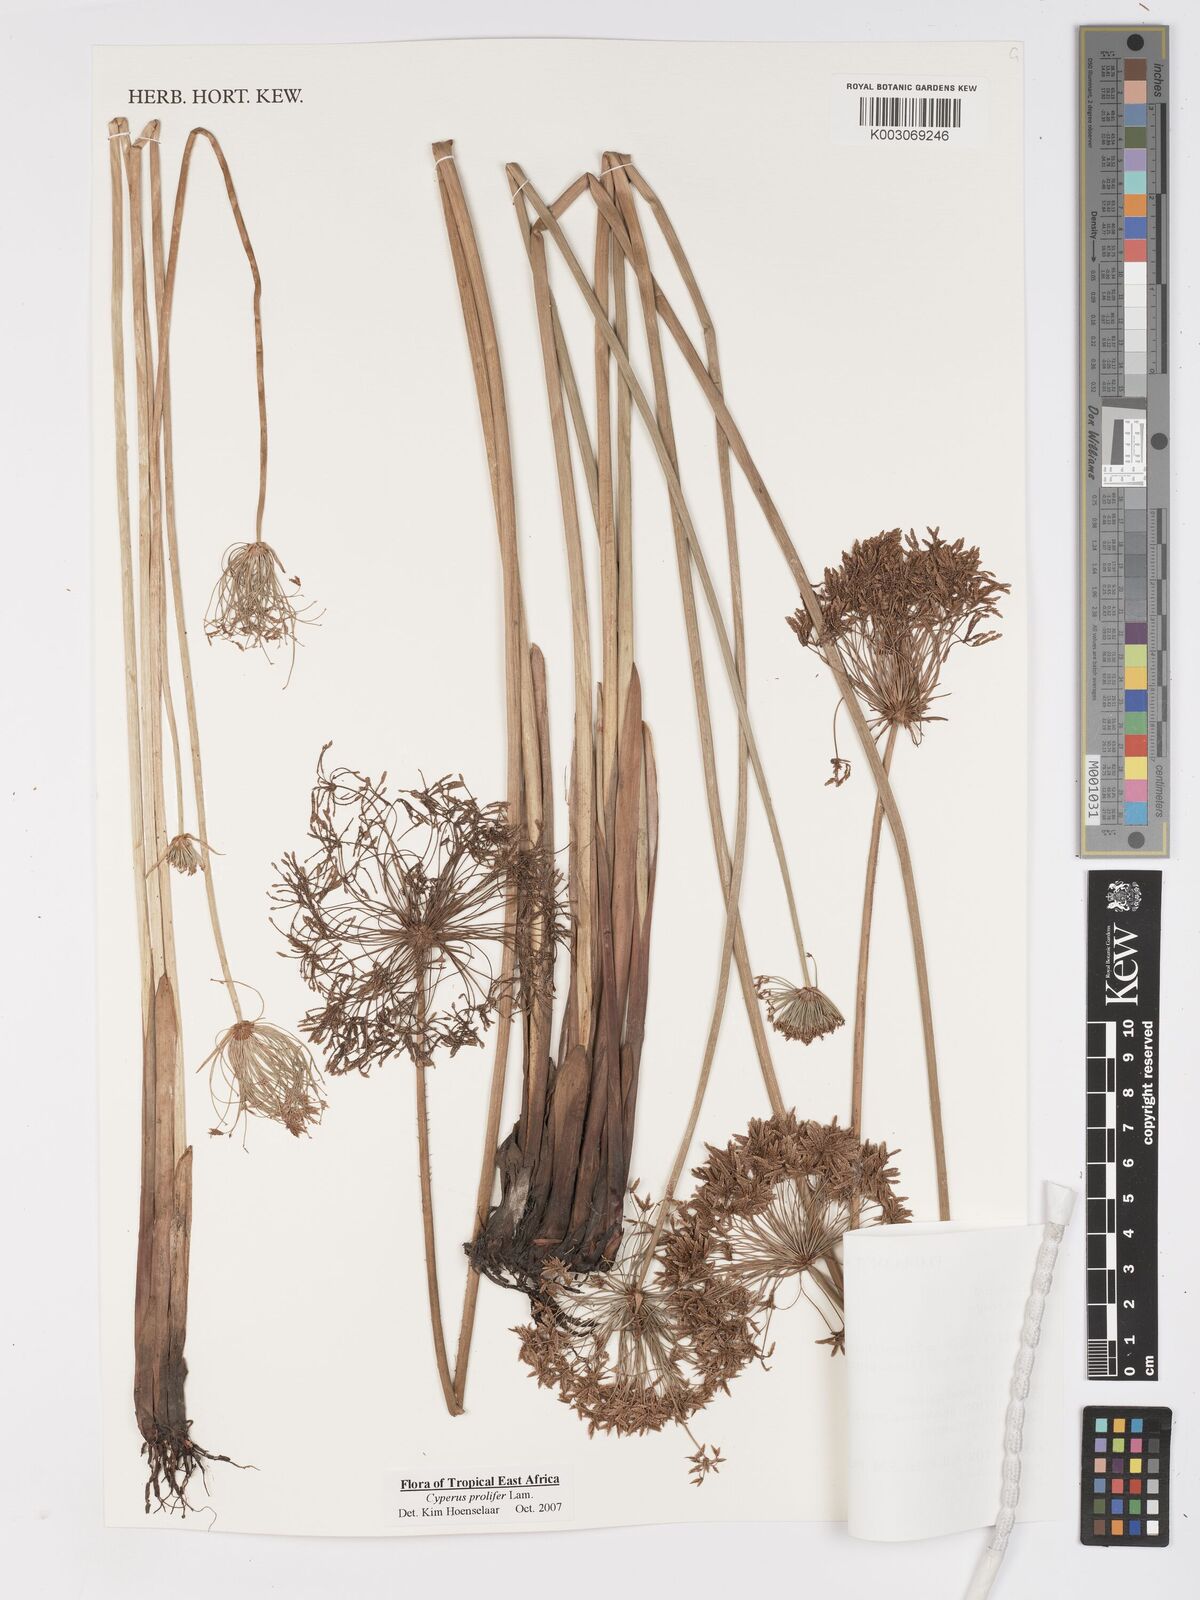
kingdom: Plantae
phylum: Tracheophyta
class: Liliopsida
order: Poales
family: Cyperaceae
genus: Cyperus
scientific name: Cyperus prolifer
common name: Miniature flatsedge
